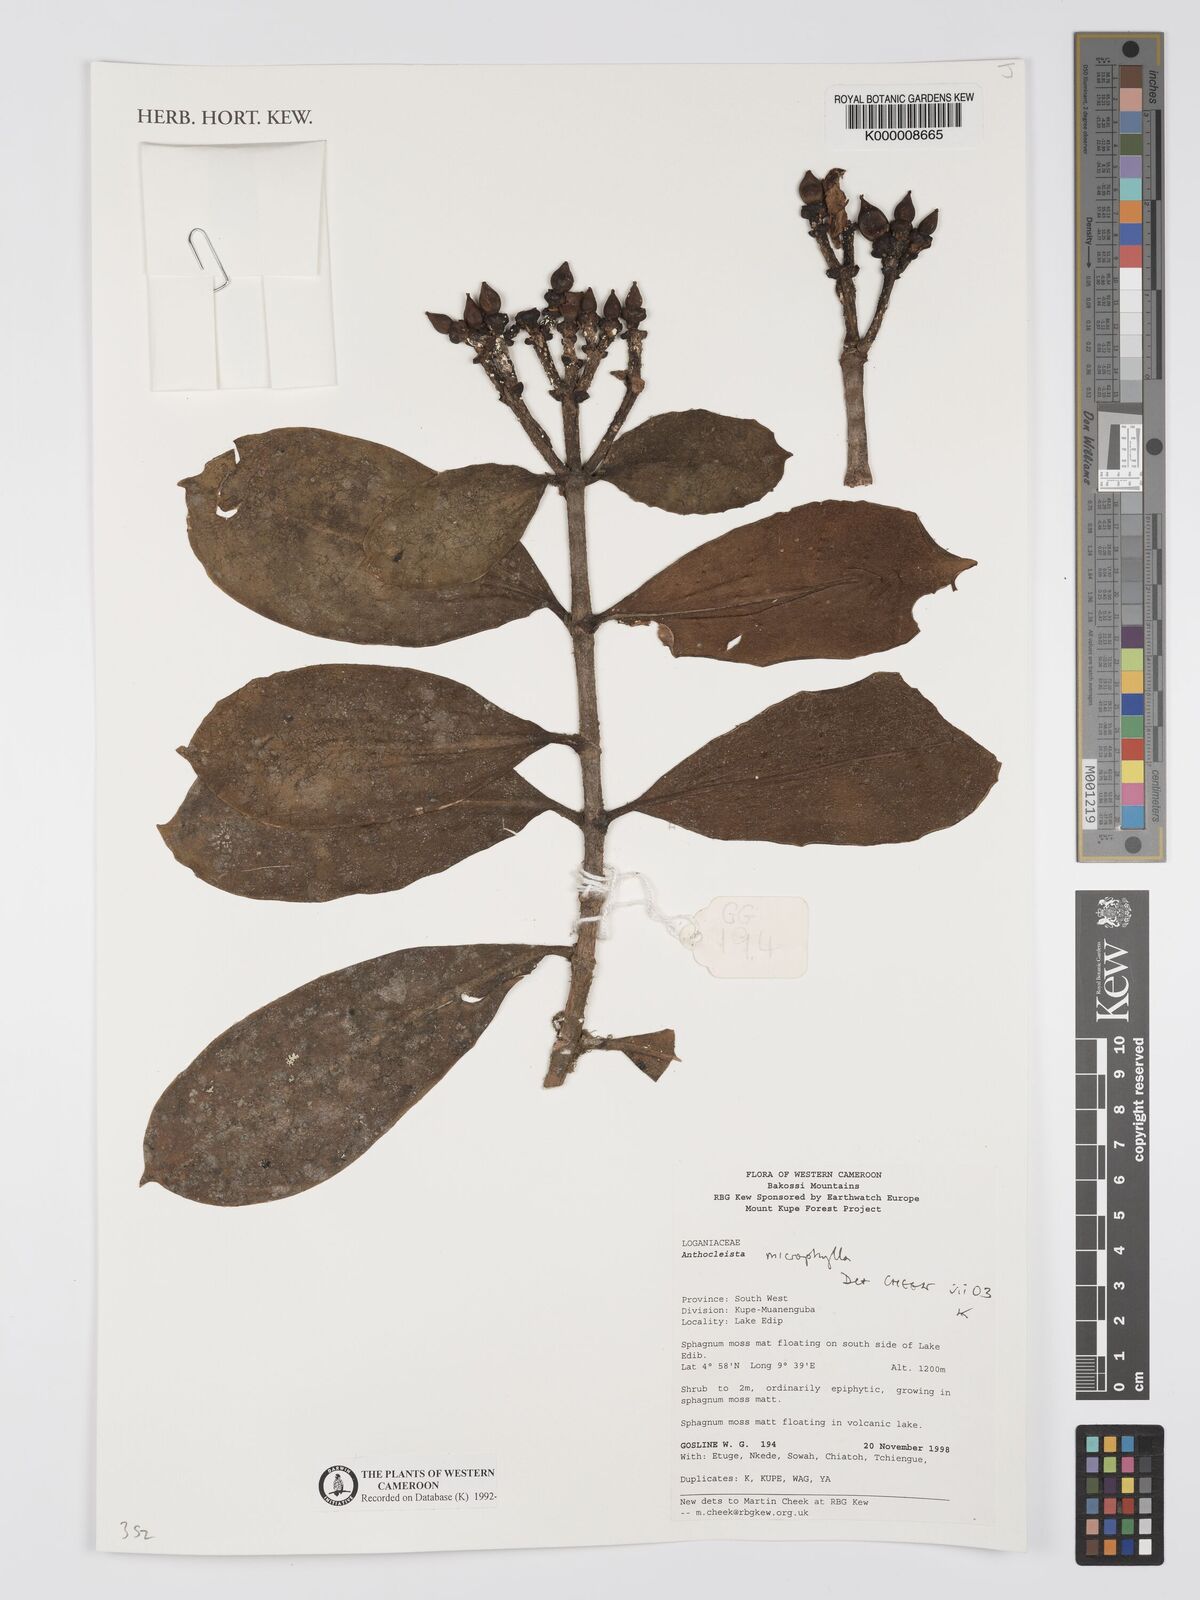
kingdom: Plantae
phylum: Tracheophyta
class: Magnoliopsida
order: Gentianales
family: Gentianaceae
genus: Anthocleista
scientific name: Anthocleista microphylla
